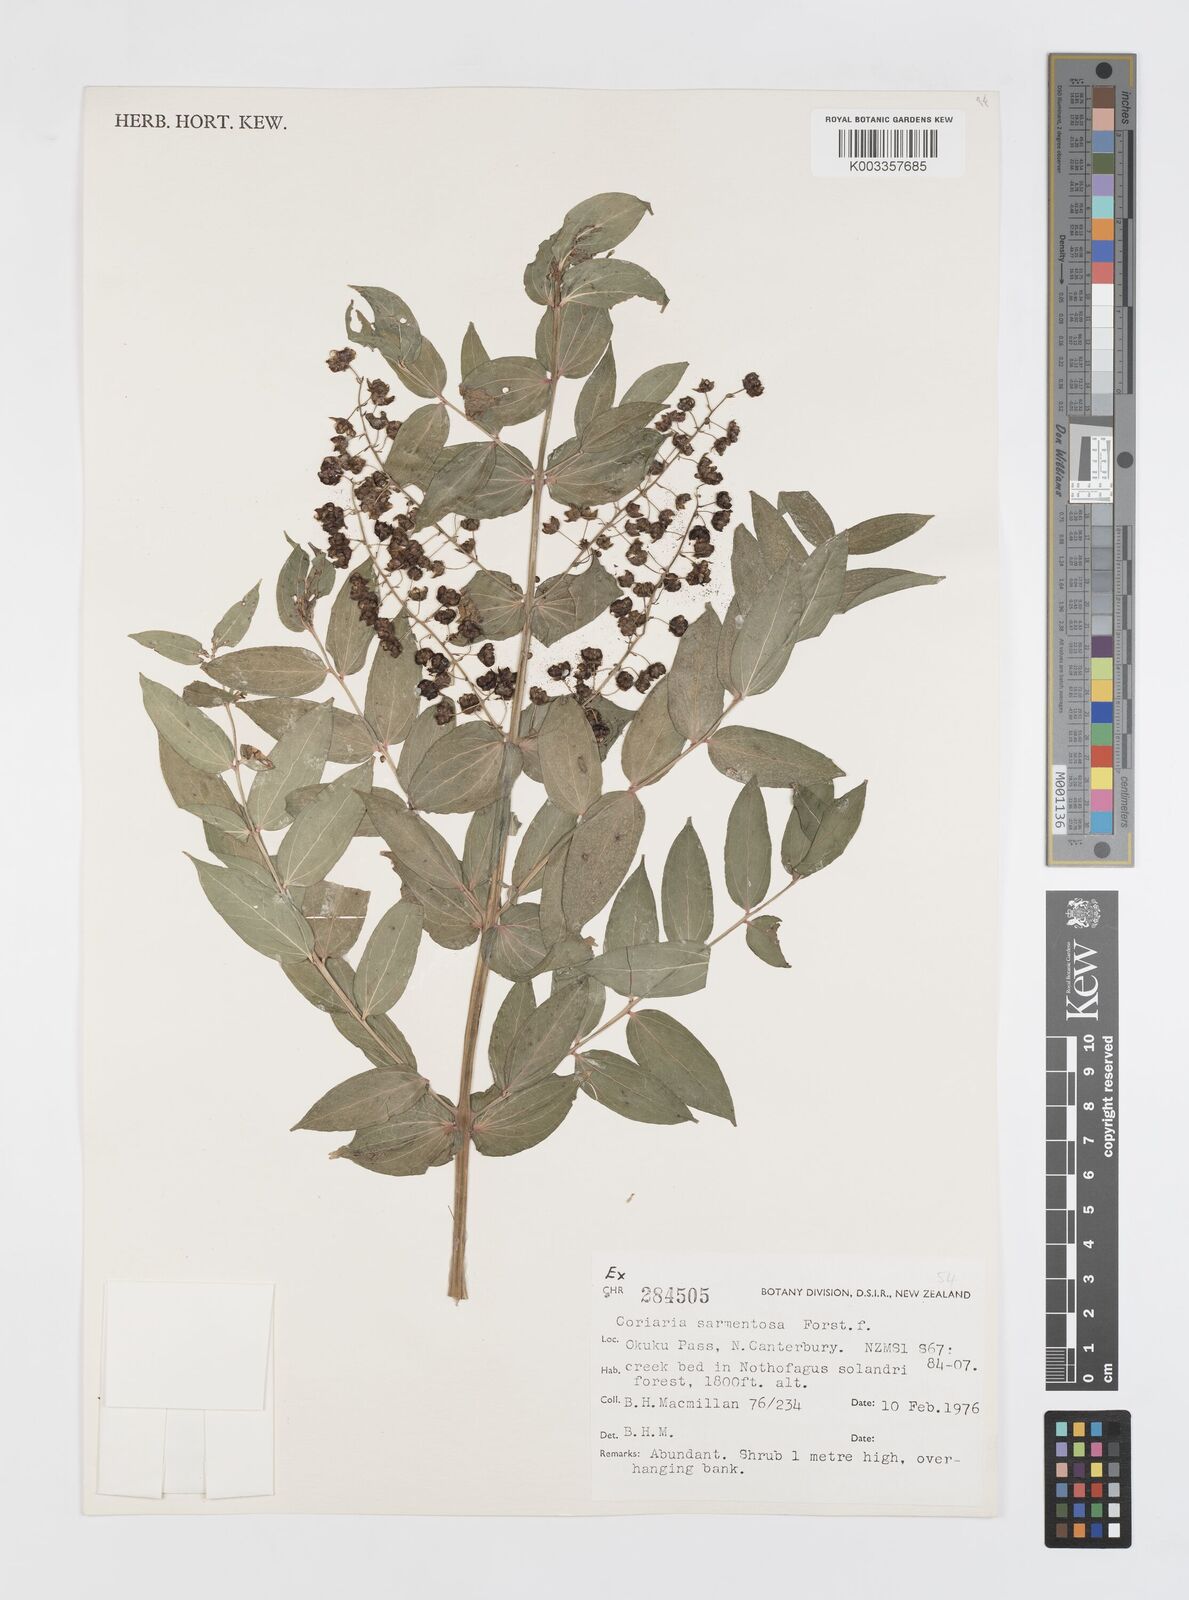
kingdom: Plantae
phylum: Tracheophyta
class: Magnoliopsida
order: Cucurbitales
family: Coriariaceae
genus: Coriaria
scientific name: Coriaria sarmentosa
